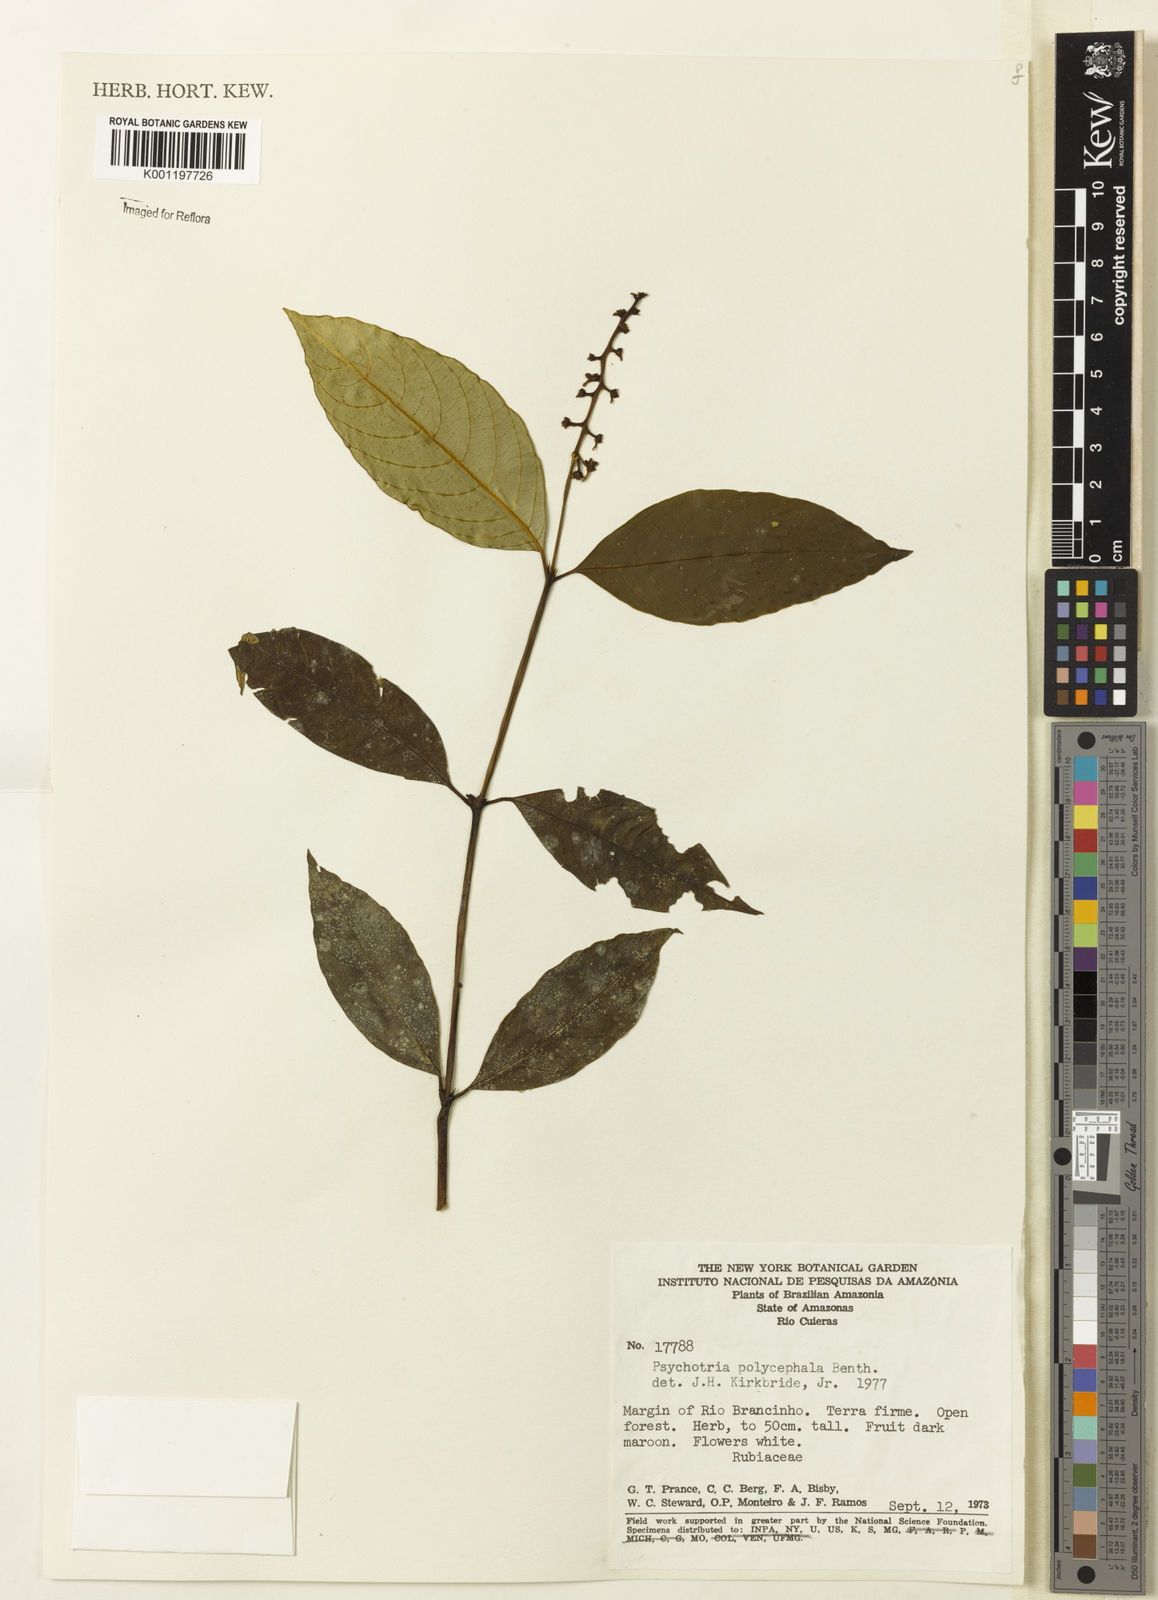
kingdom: Plantae
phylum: Tracheophyta
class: Magnoliopsida
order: Gentianales
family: Rubiaceae
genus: Palicourea
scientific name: Palicourea polycephala
